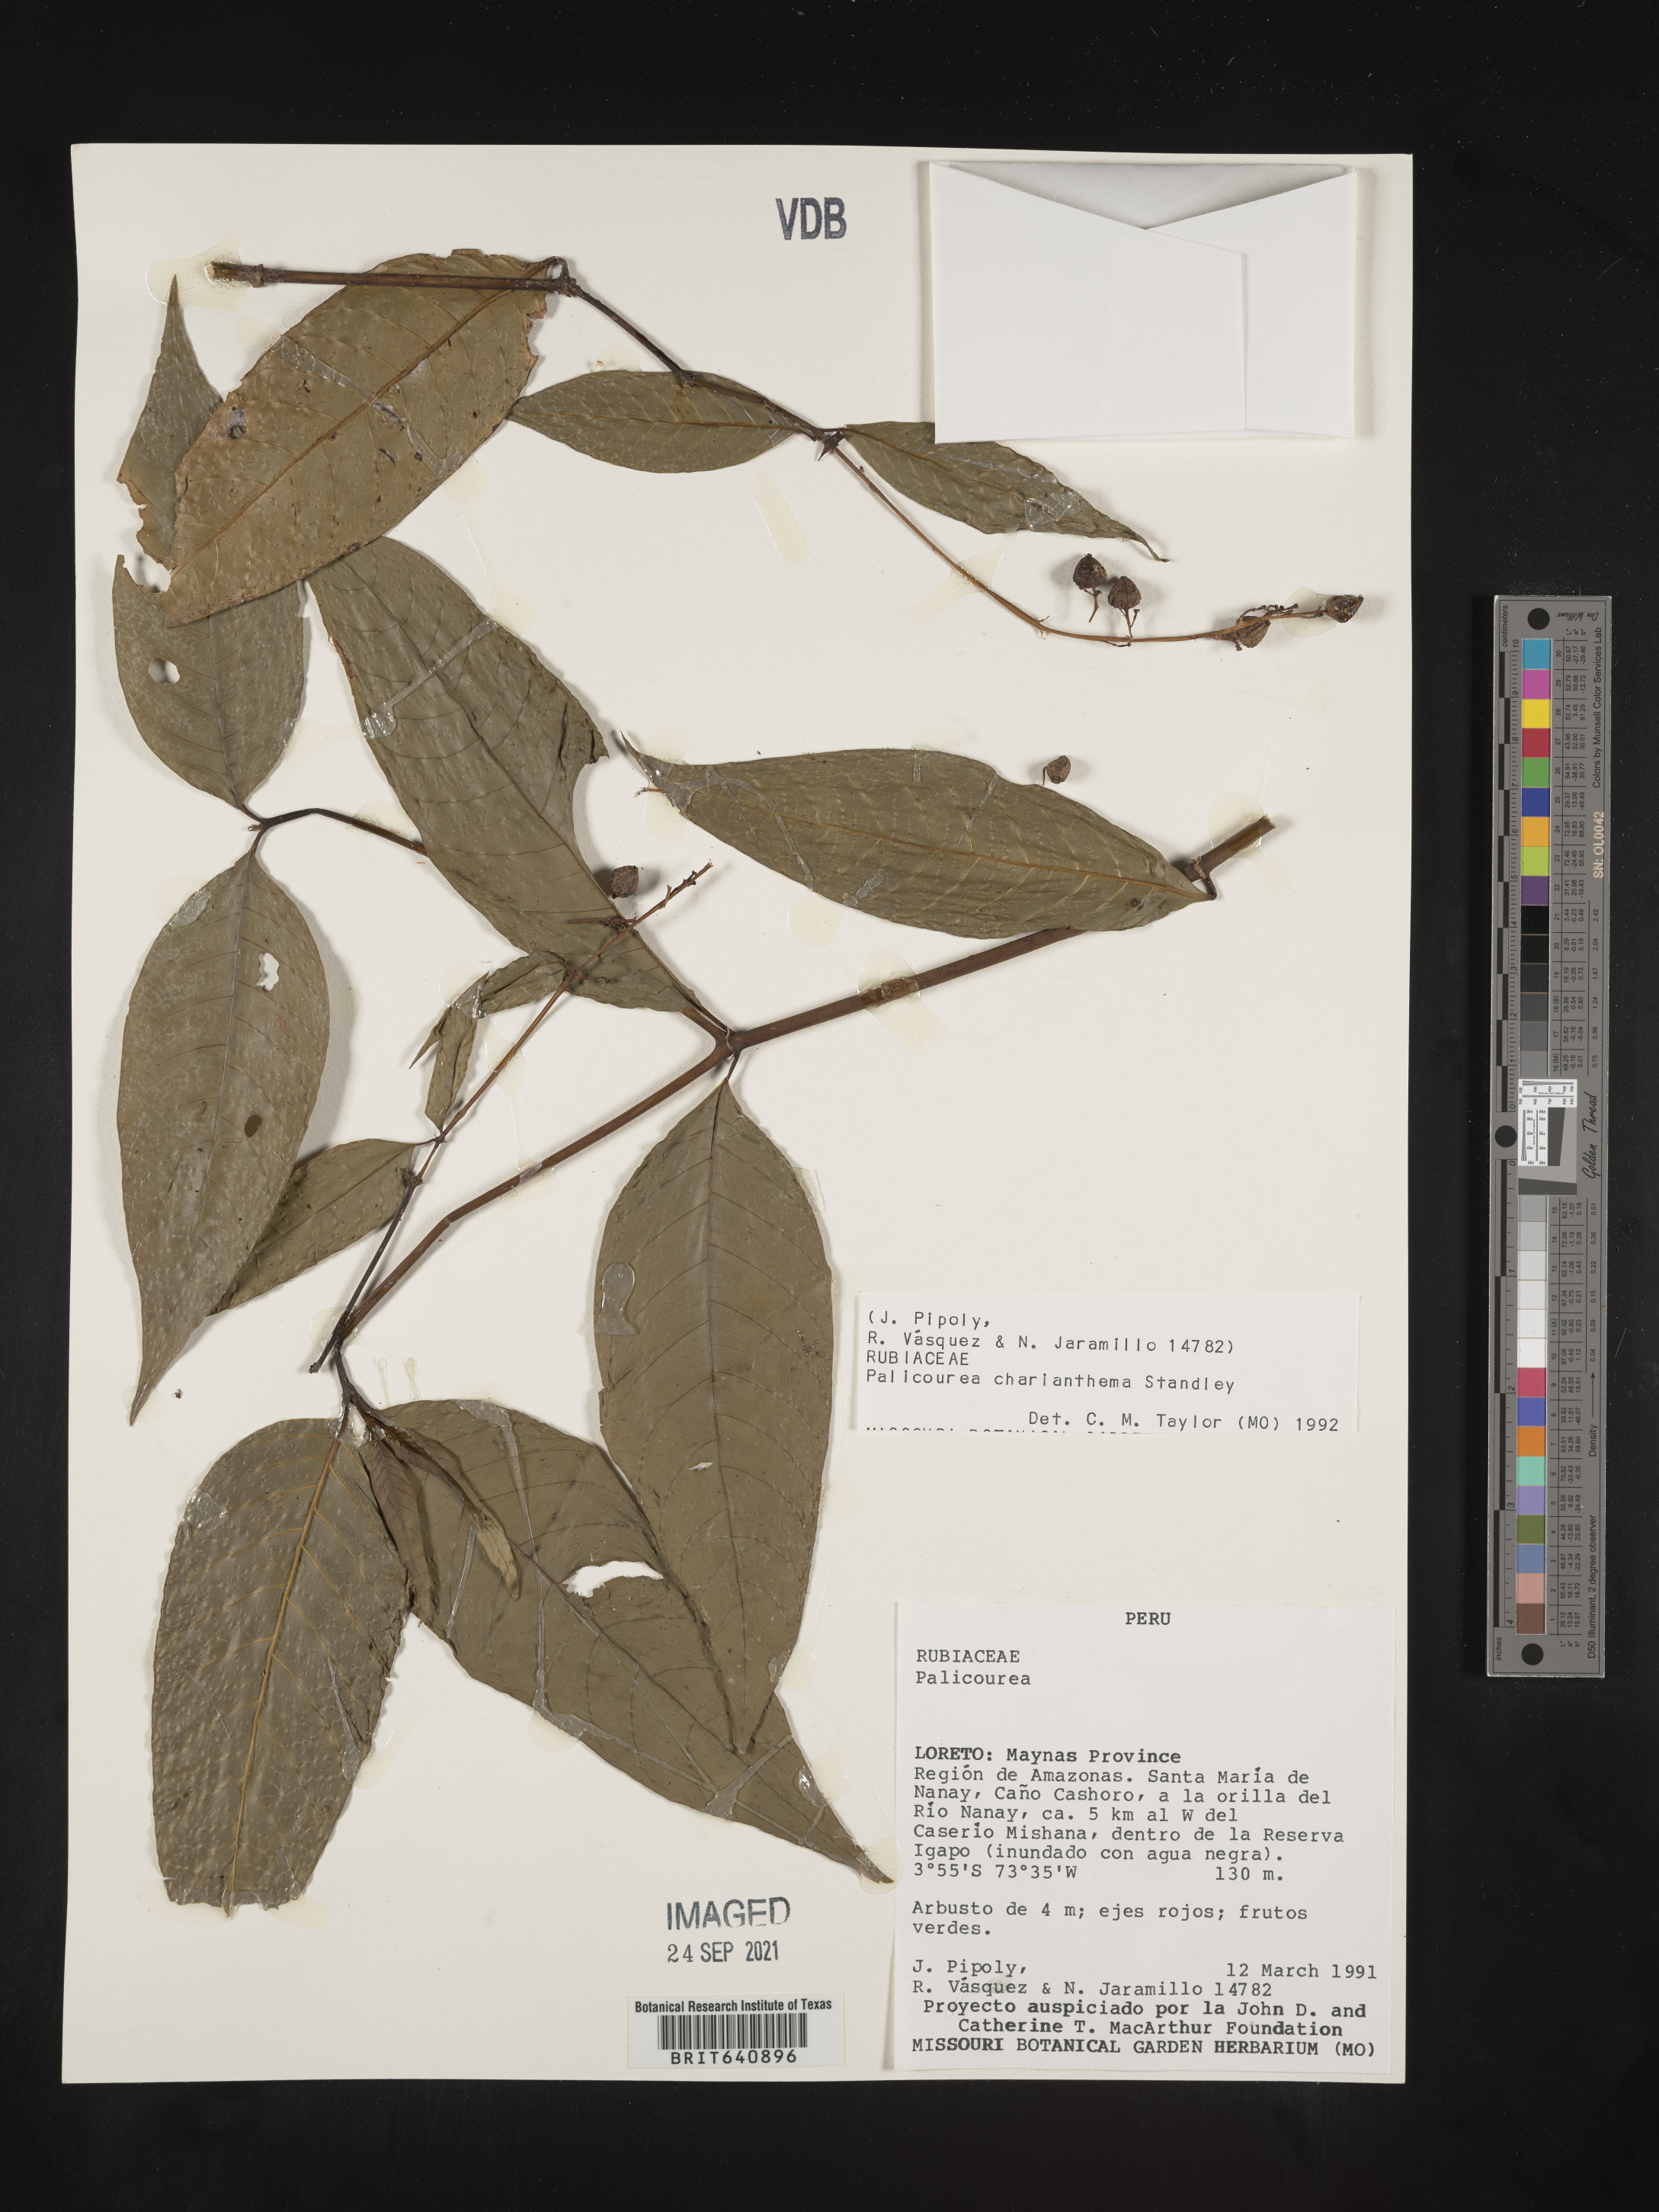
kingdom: Plantae
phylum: Tracheophyta
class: Magnoliopsida
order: Gentianales
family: Rubiaceae
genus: Palicourea
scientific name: Palicourea
